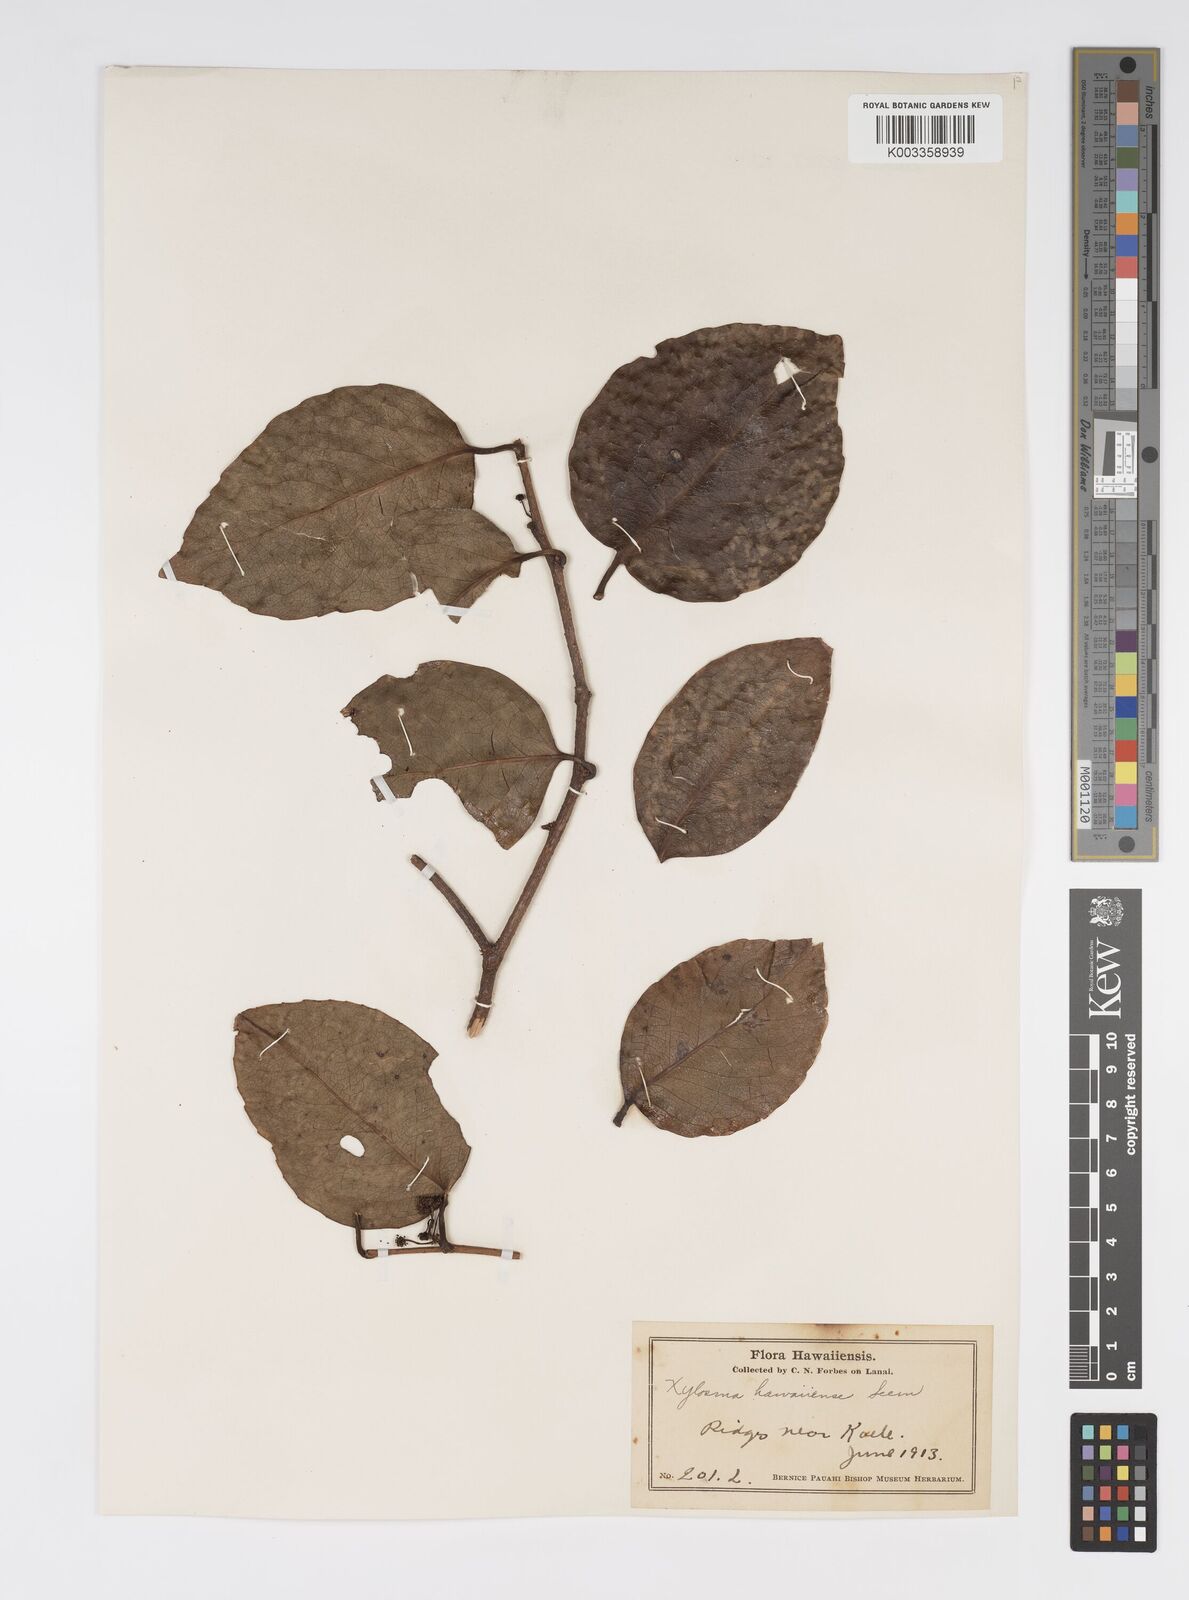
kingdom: Plantae
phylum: Tracheophyta
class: Magnoliopsida
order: Malpighiales
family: Salicaceae
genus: Xylosma
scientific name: Xylosma hawaiense
